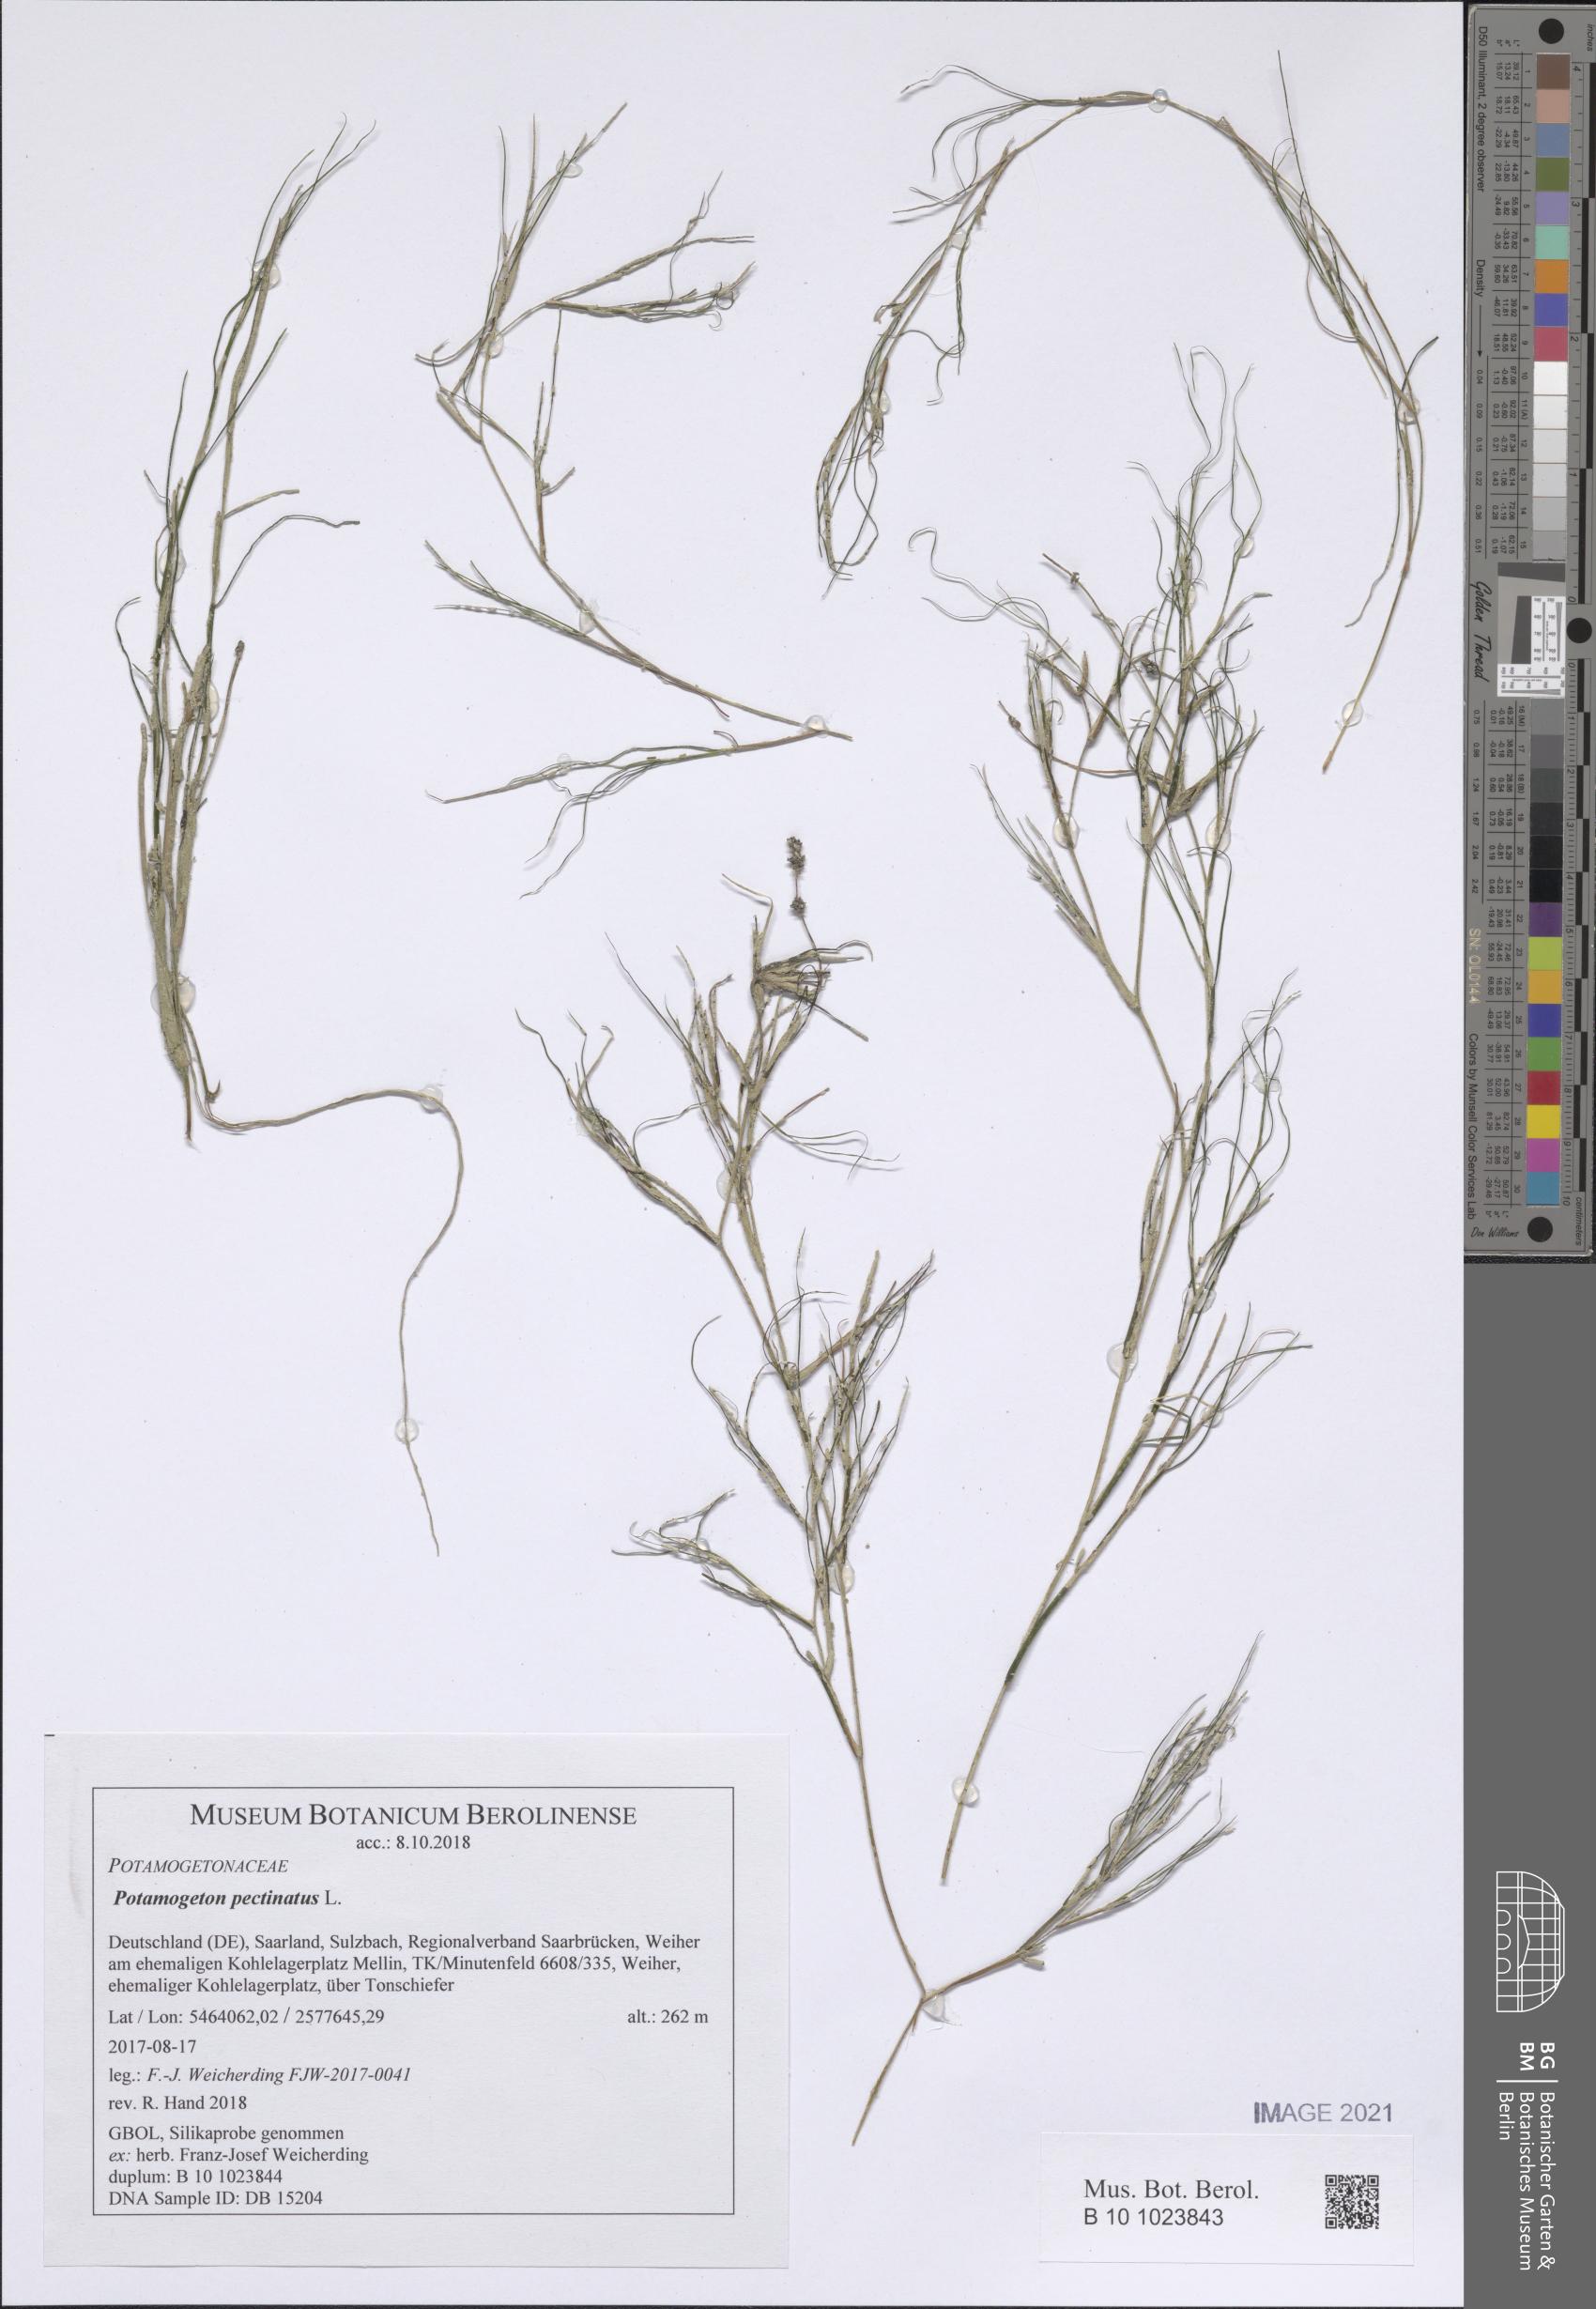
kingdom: Plantae
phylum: Tracheophyta
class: Liliopsida
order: Alismatales
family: Potamogetonaceae
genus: Stuckenia
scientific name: Stuckenia pectinata
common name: Sago pondweed
